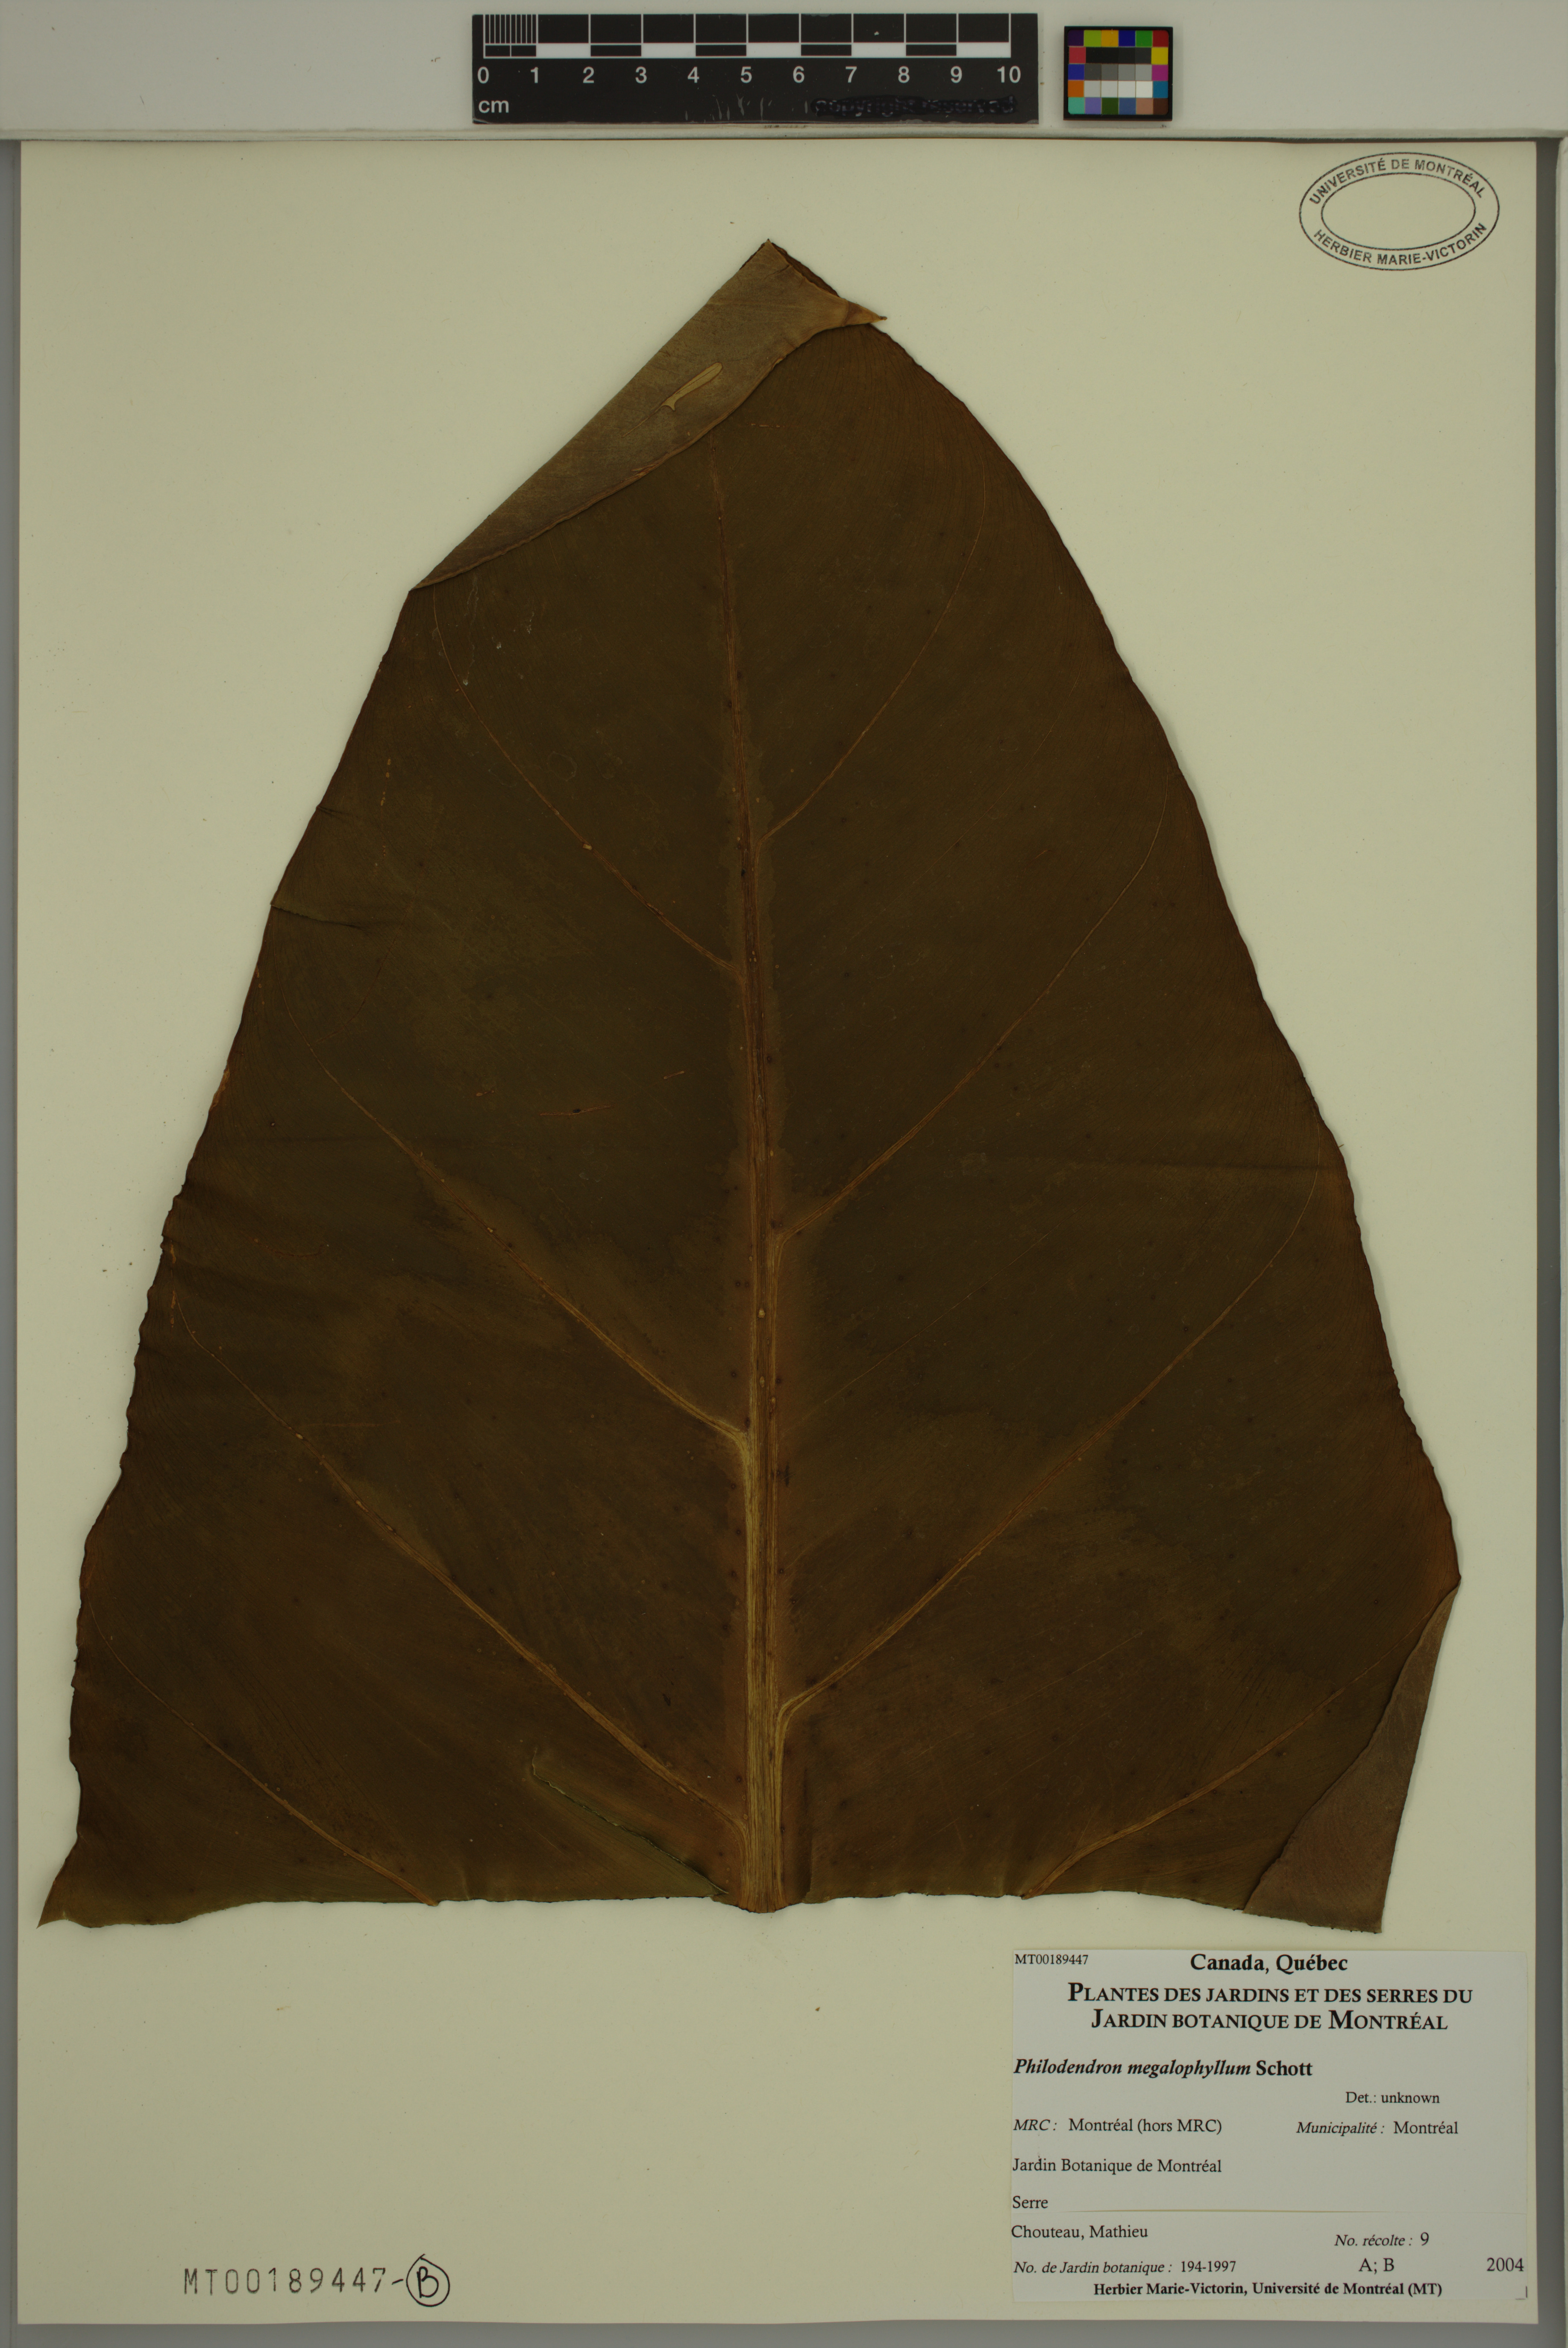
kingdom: Plantae
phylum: Tracheophyta
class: Liliopsida
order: Alismatales
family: Araceae
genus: Philodendron
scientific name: Philodendron megalophyllum
